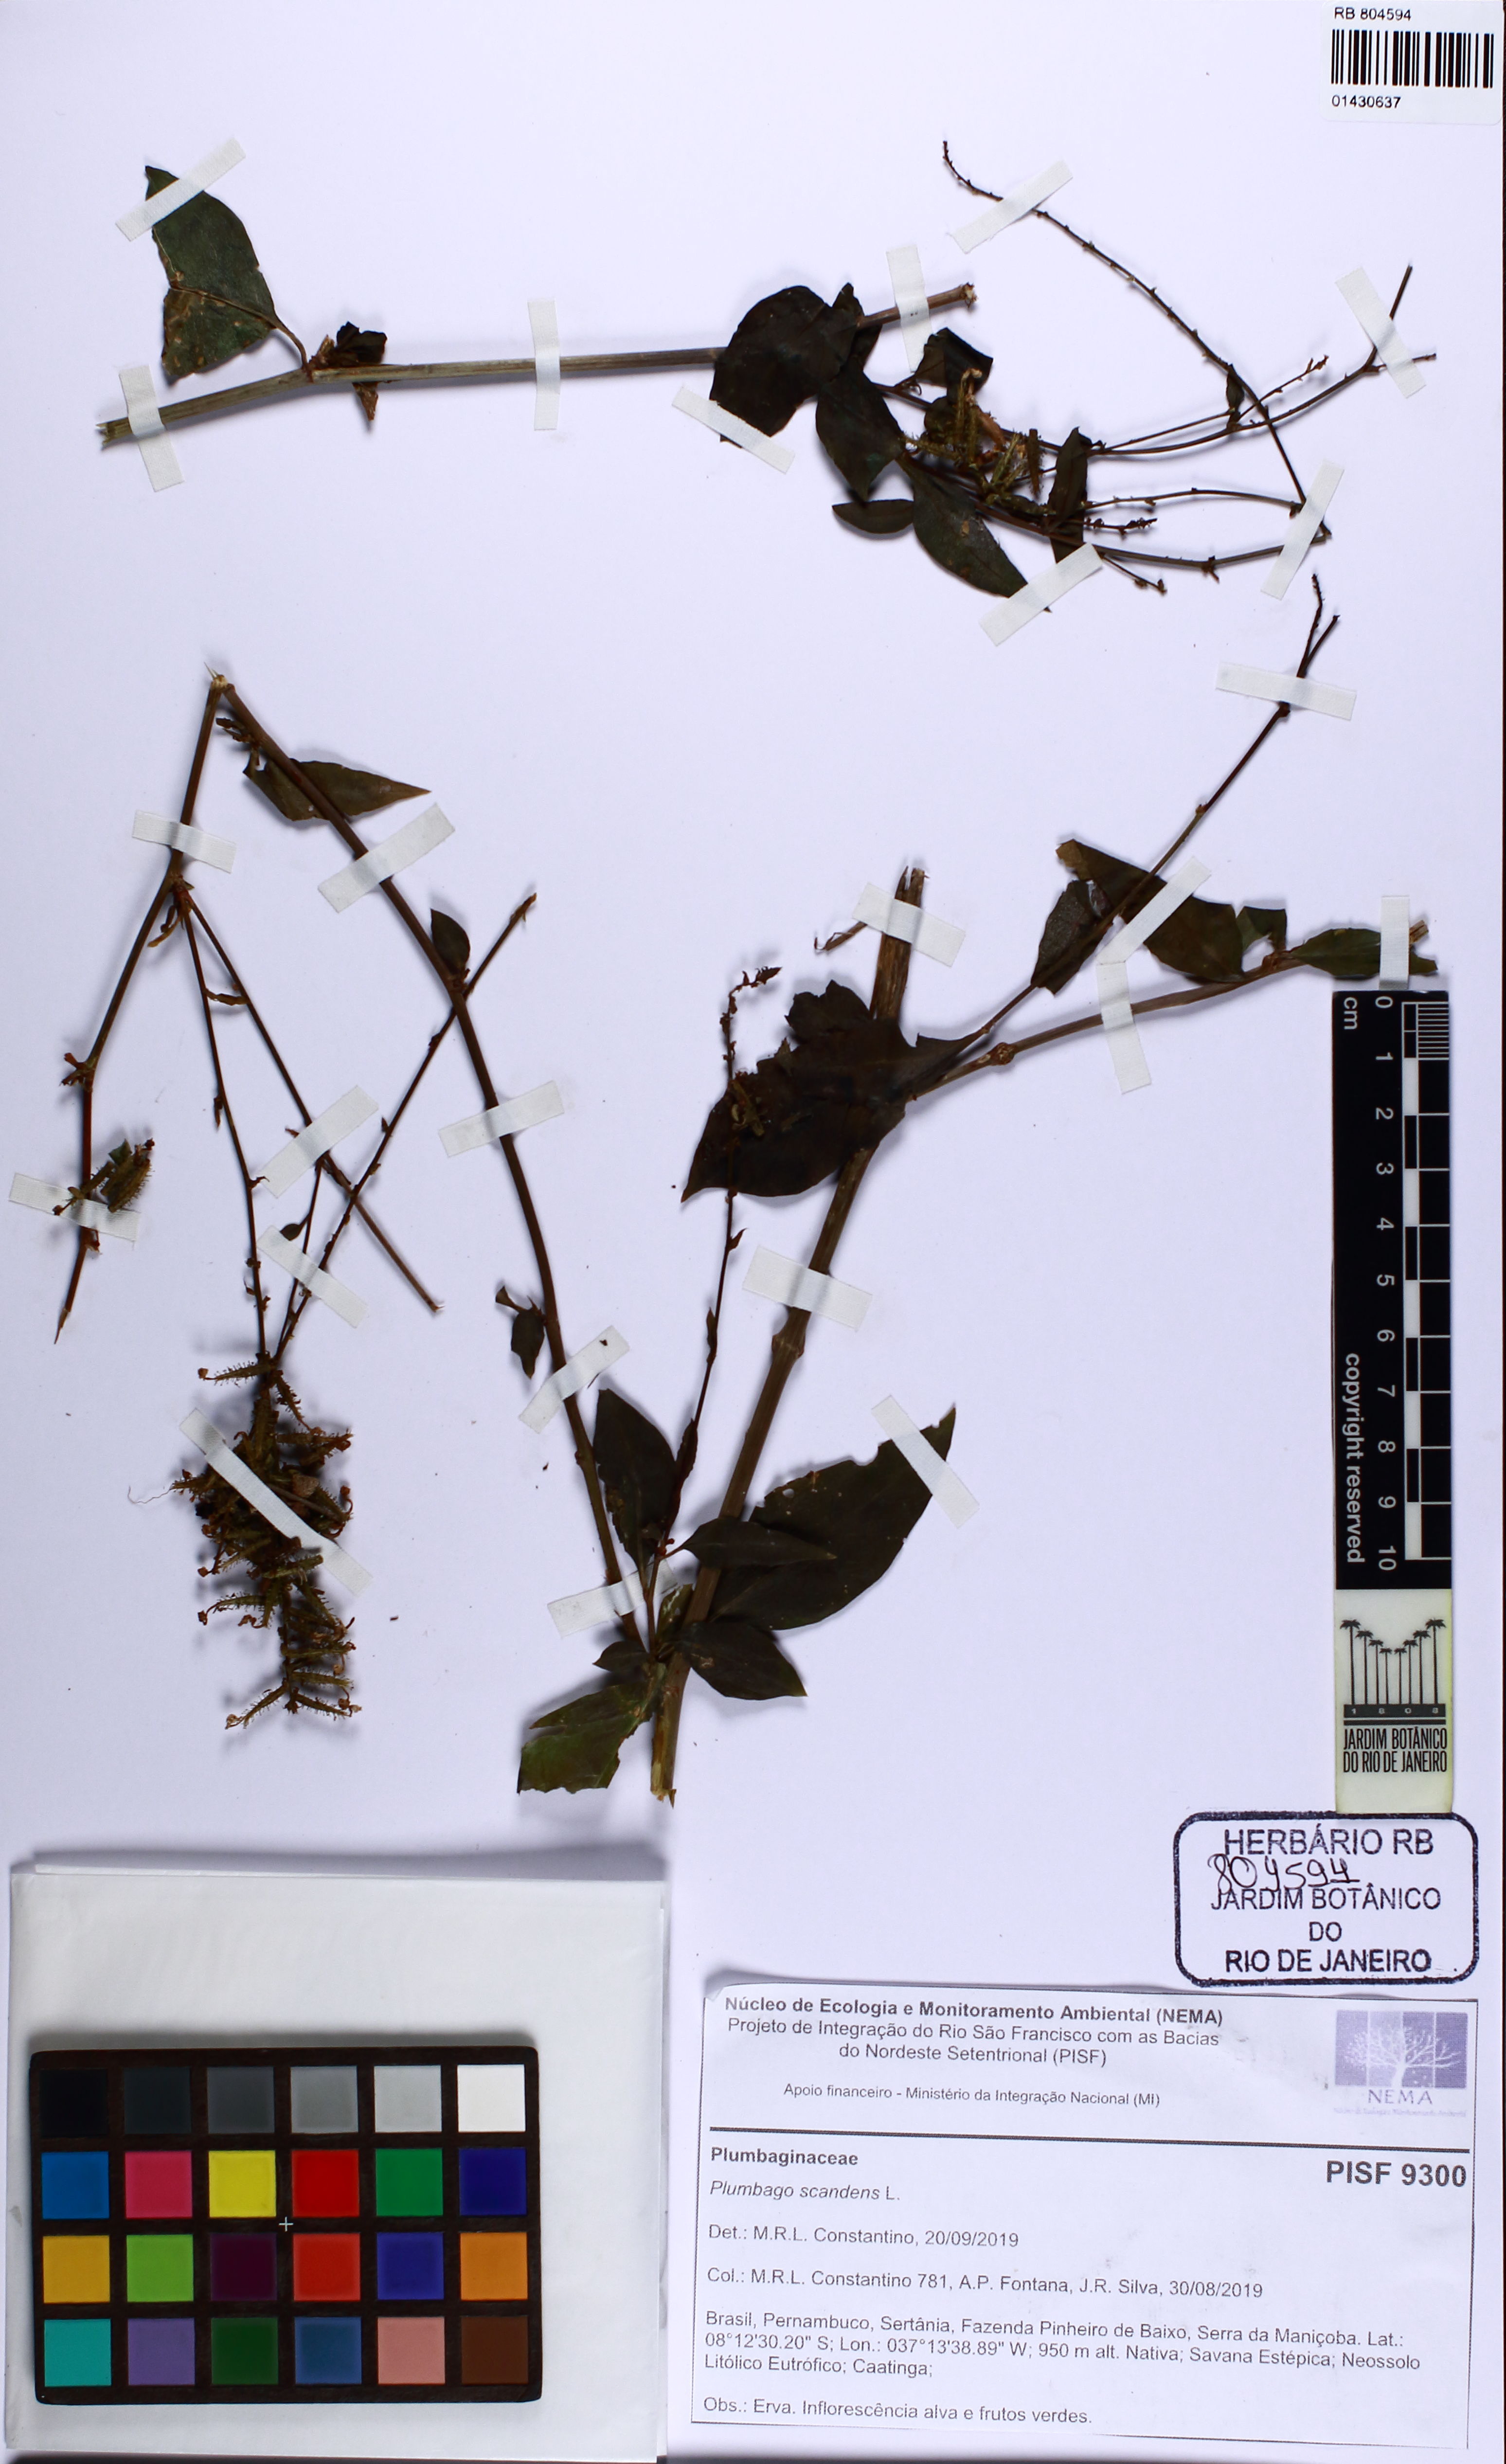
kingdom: Plantae
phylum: Tracheophyta
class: Magnoliopsida
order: Caryophyllales
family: Plumbaginaceae
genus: Plumbago
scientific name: Plumbago zeylanica
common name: Doctorbush
